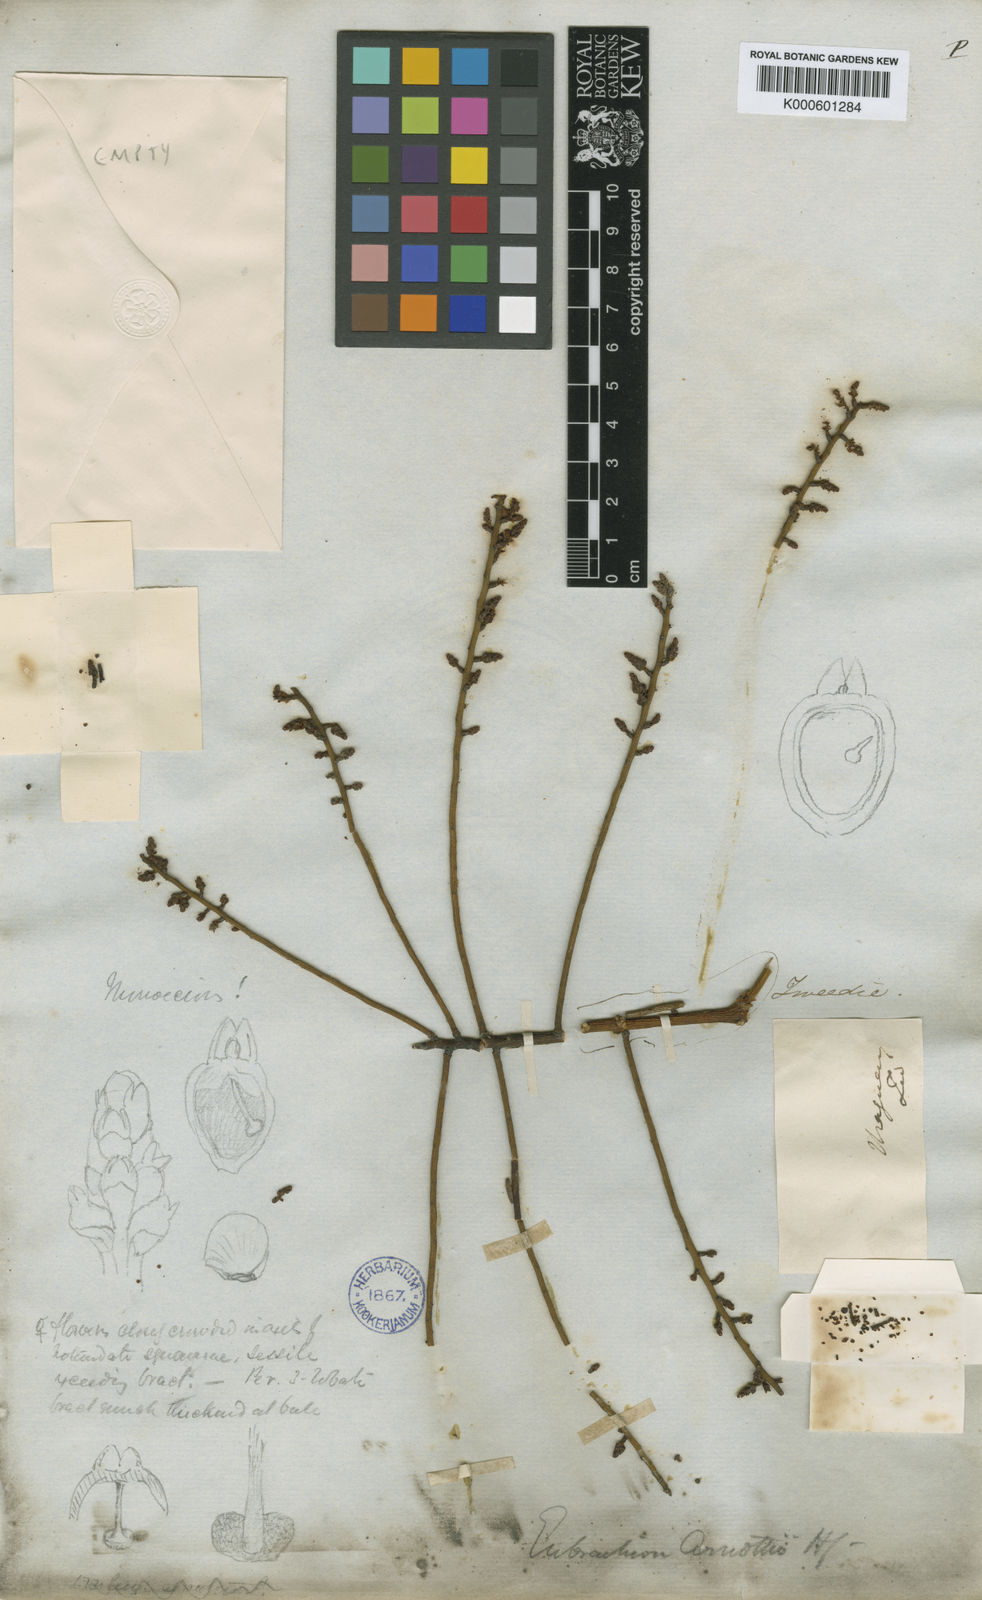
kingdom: Plantae
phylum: Tracheophyta
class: Magnoliopsida
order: Santalales
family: Santalaceae
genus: Eubrachion
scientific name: Eubrachion ambiguum
